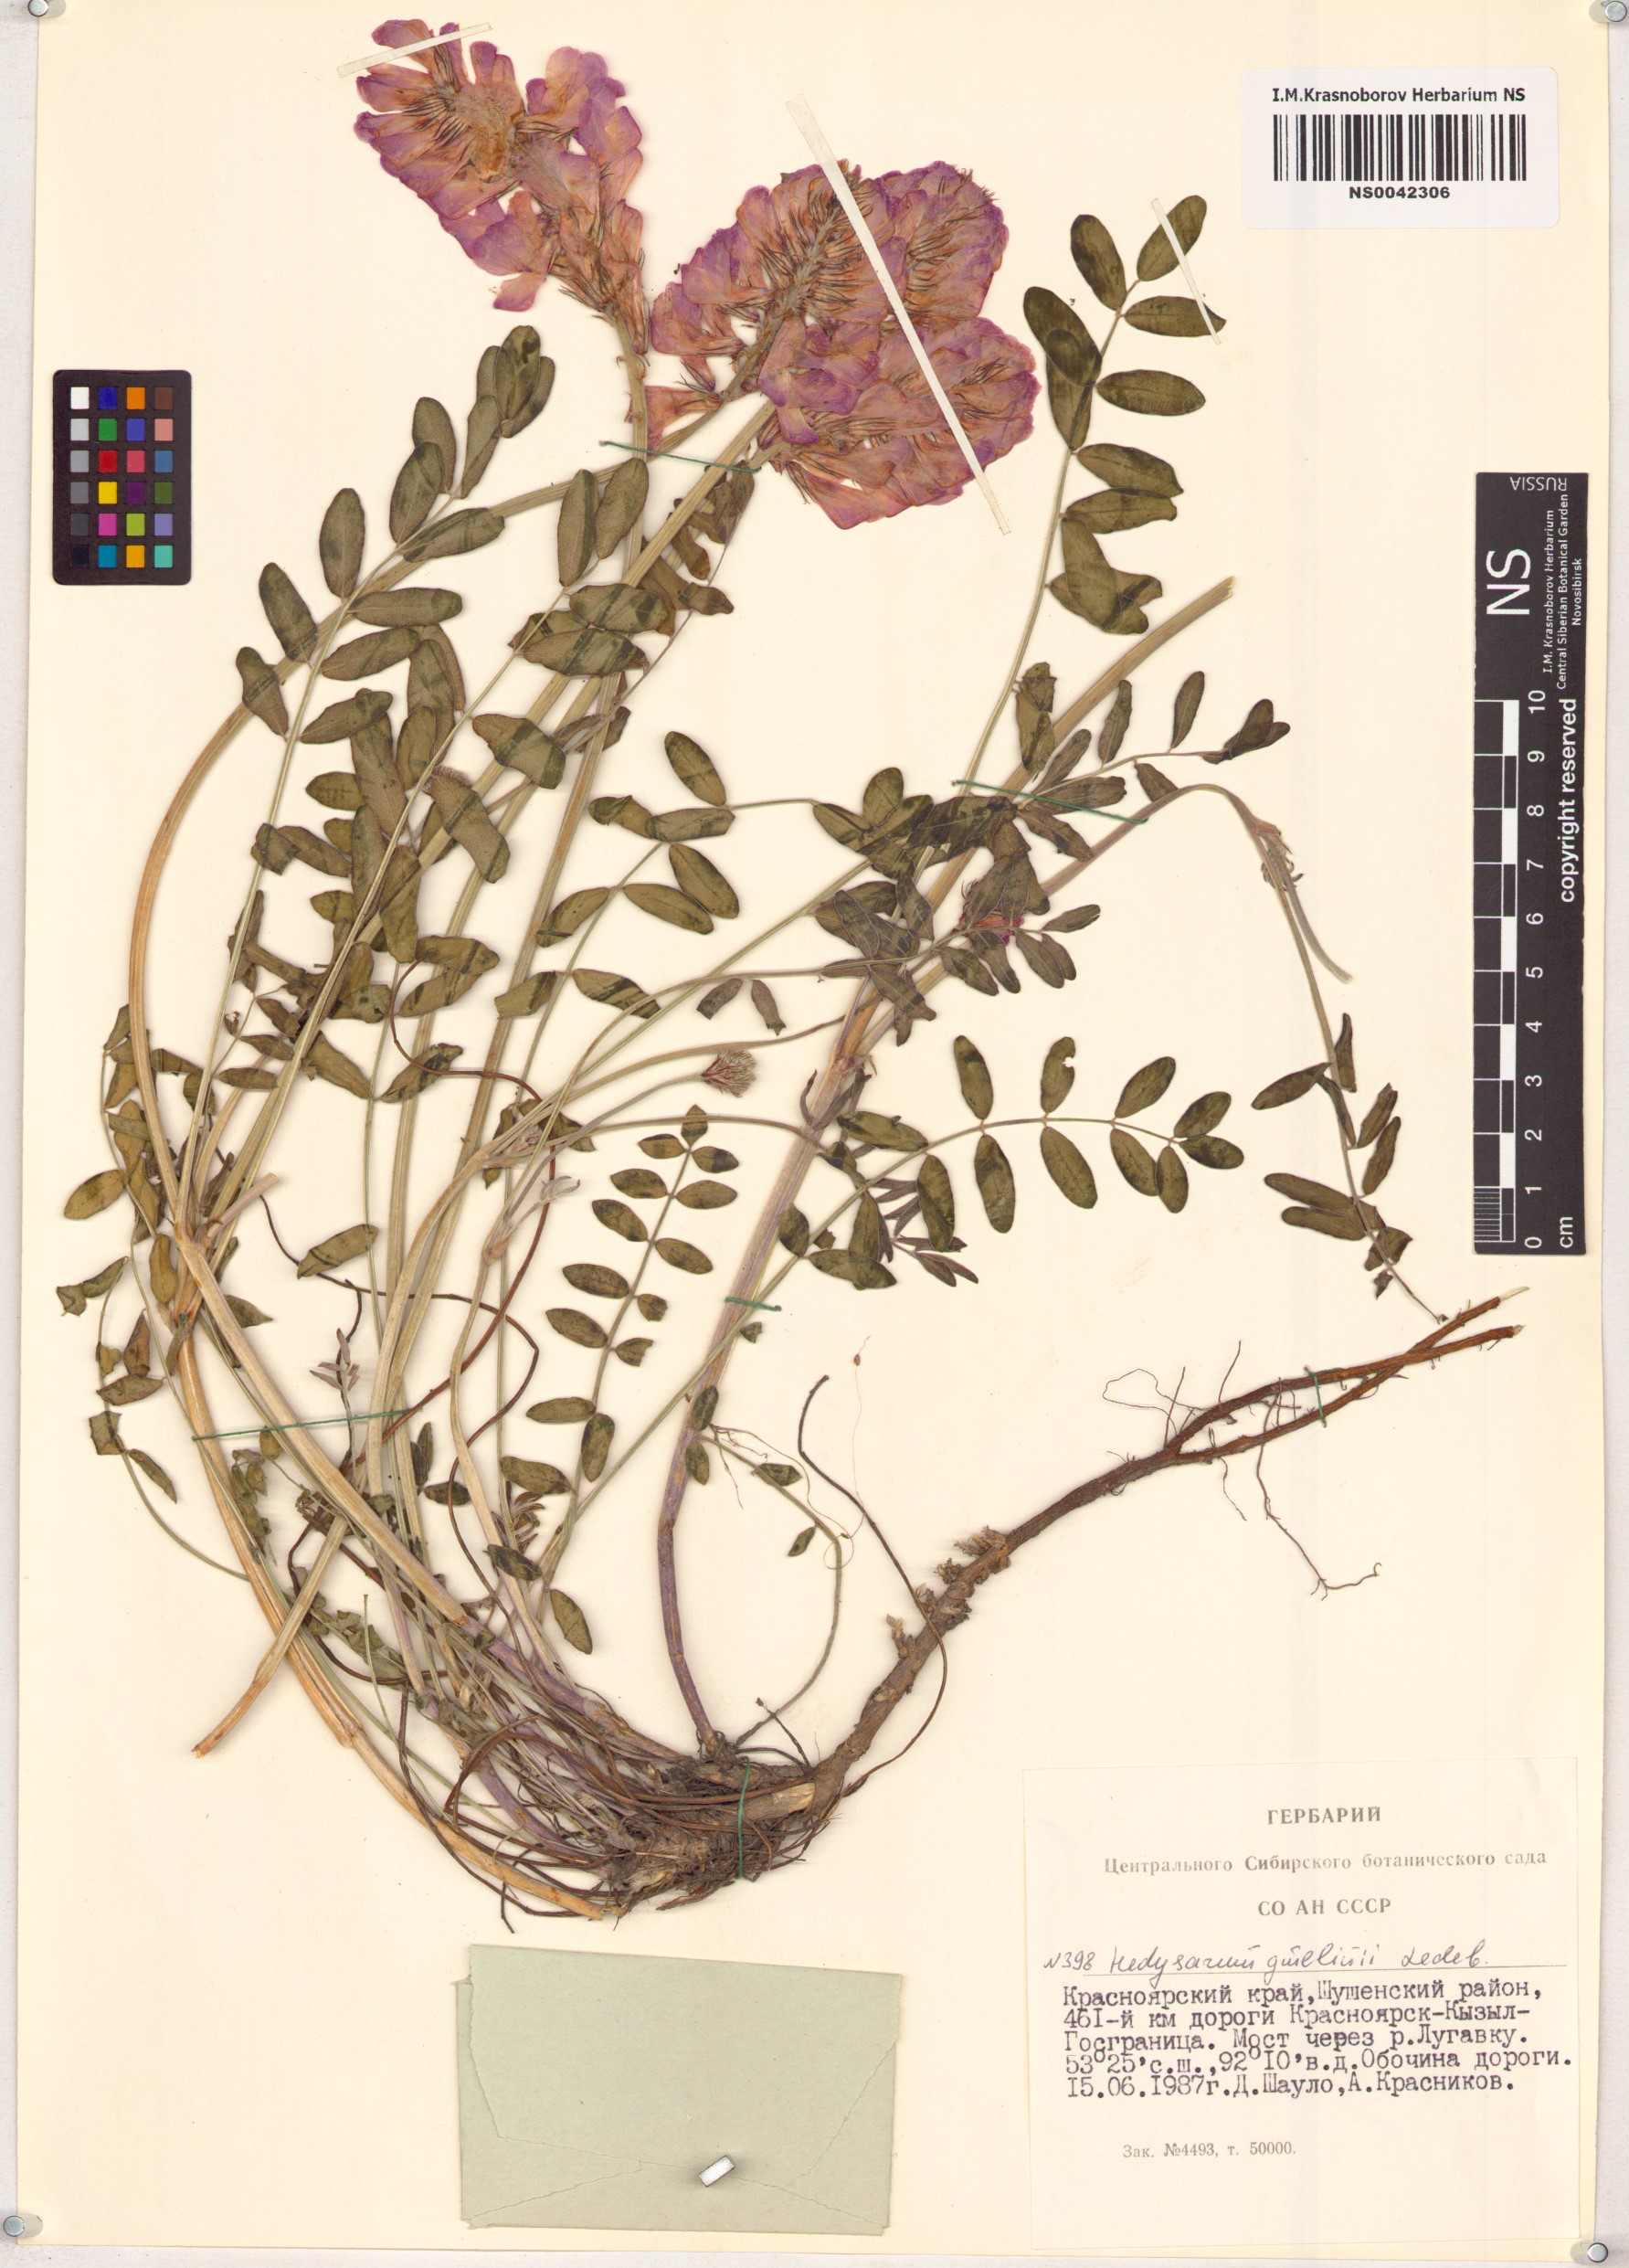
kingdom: Plantae
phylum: Tracheophyta
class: Magnoliopsida
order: Fabales
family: Fabaceae
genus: Hedysarum
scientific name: Hedysarum gmelinii
